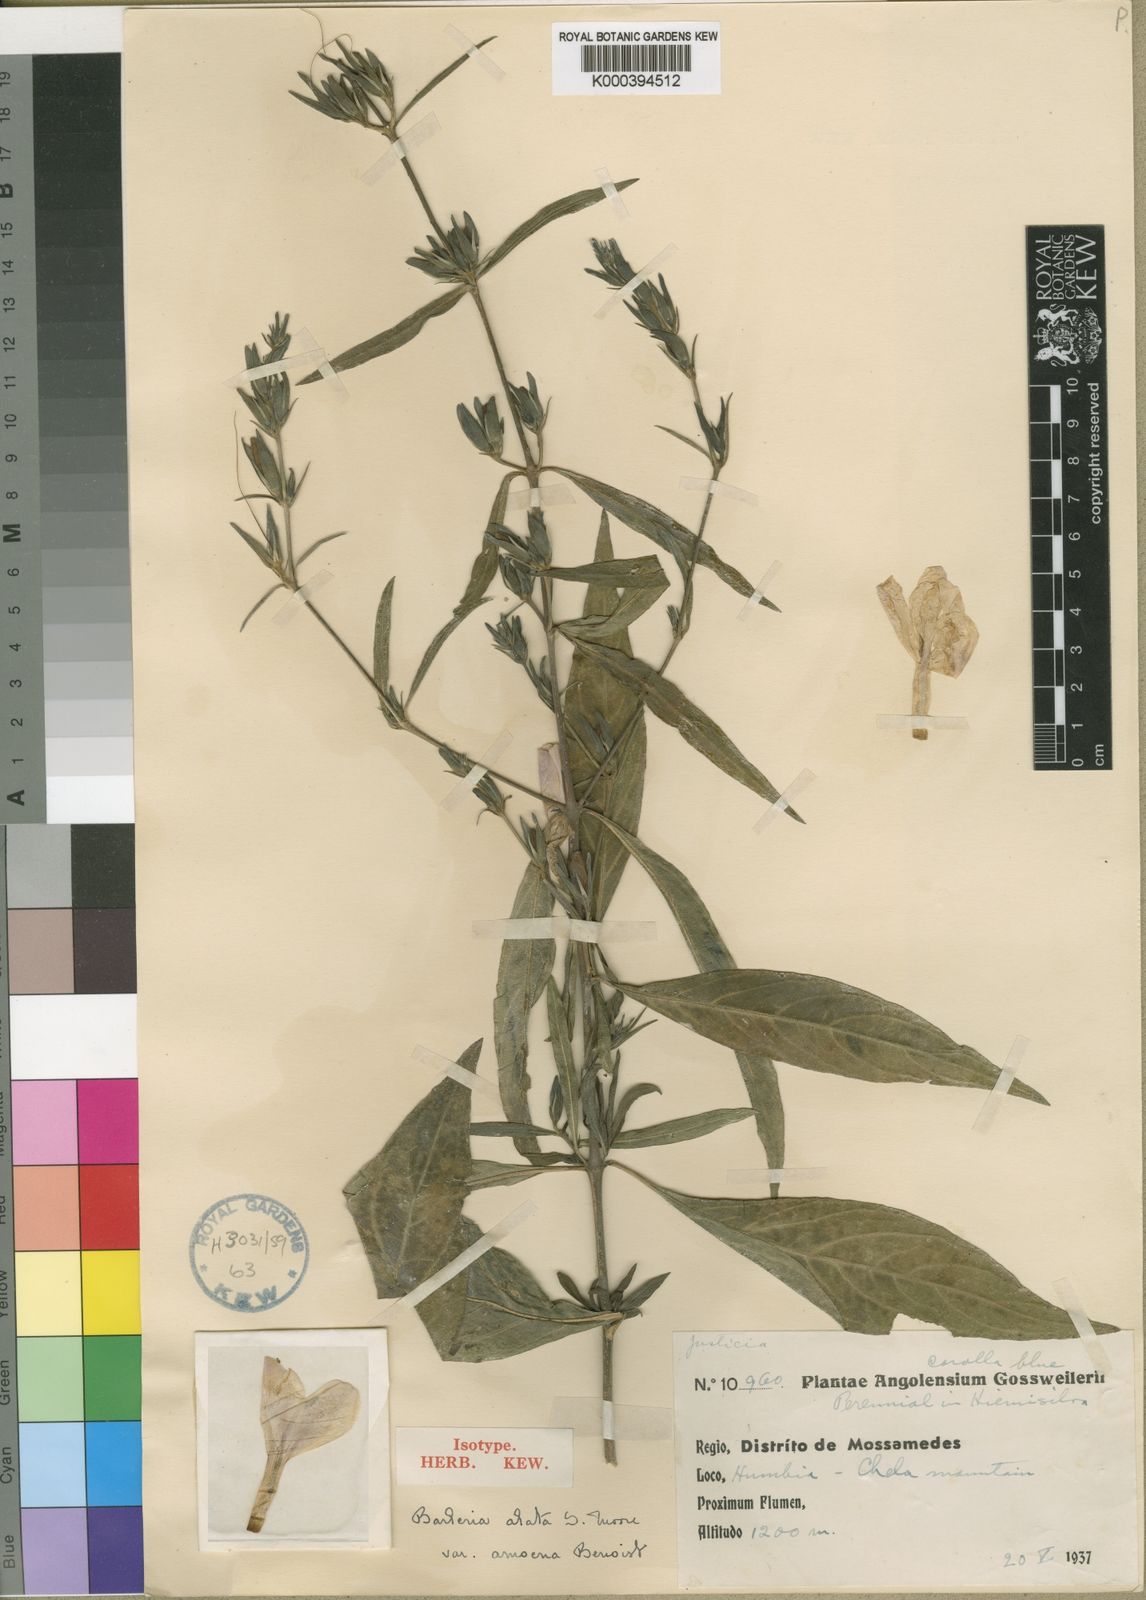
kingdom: Plantae
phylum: Tracheophyta
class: Magnoliopsida
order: Lamiales
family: Acanthaceae
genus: Barleria
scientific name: Barleria lancifolia
